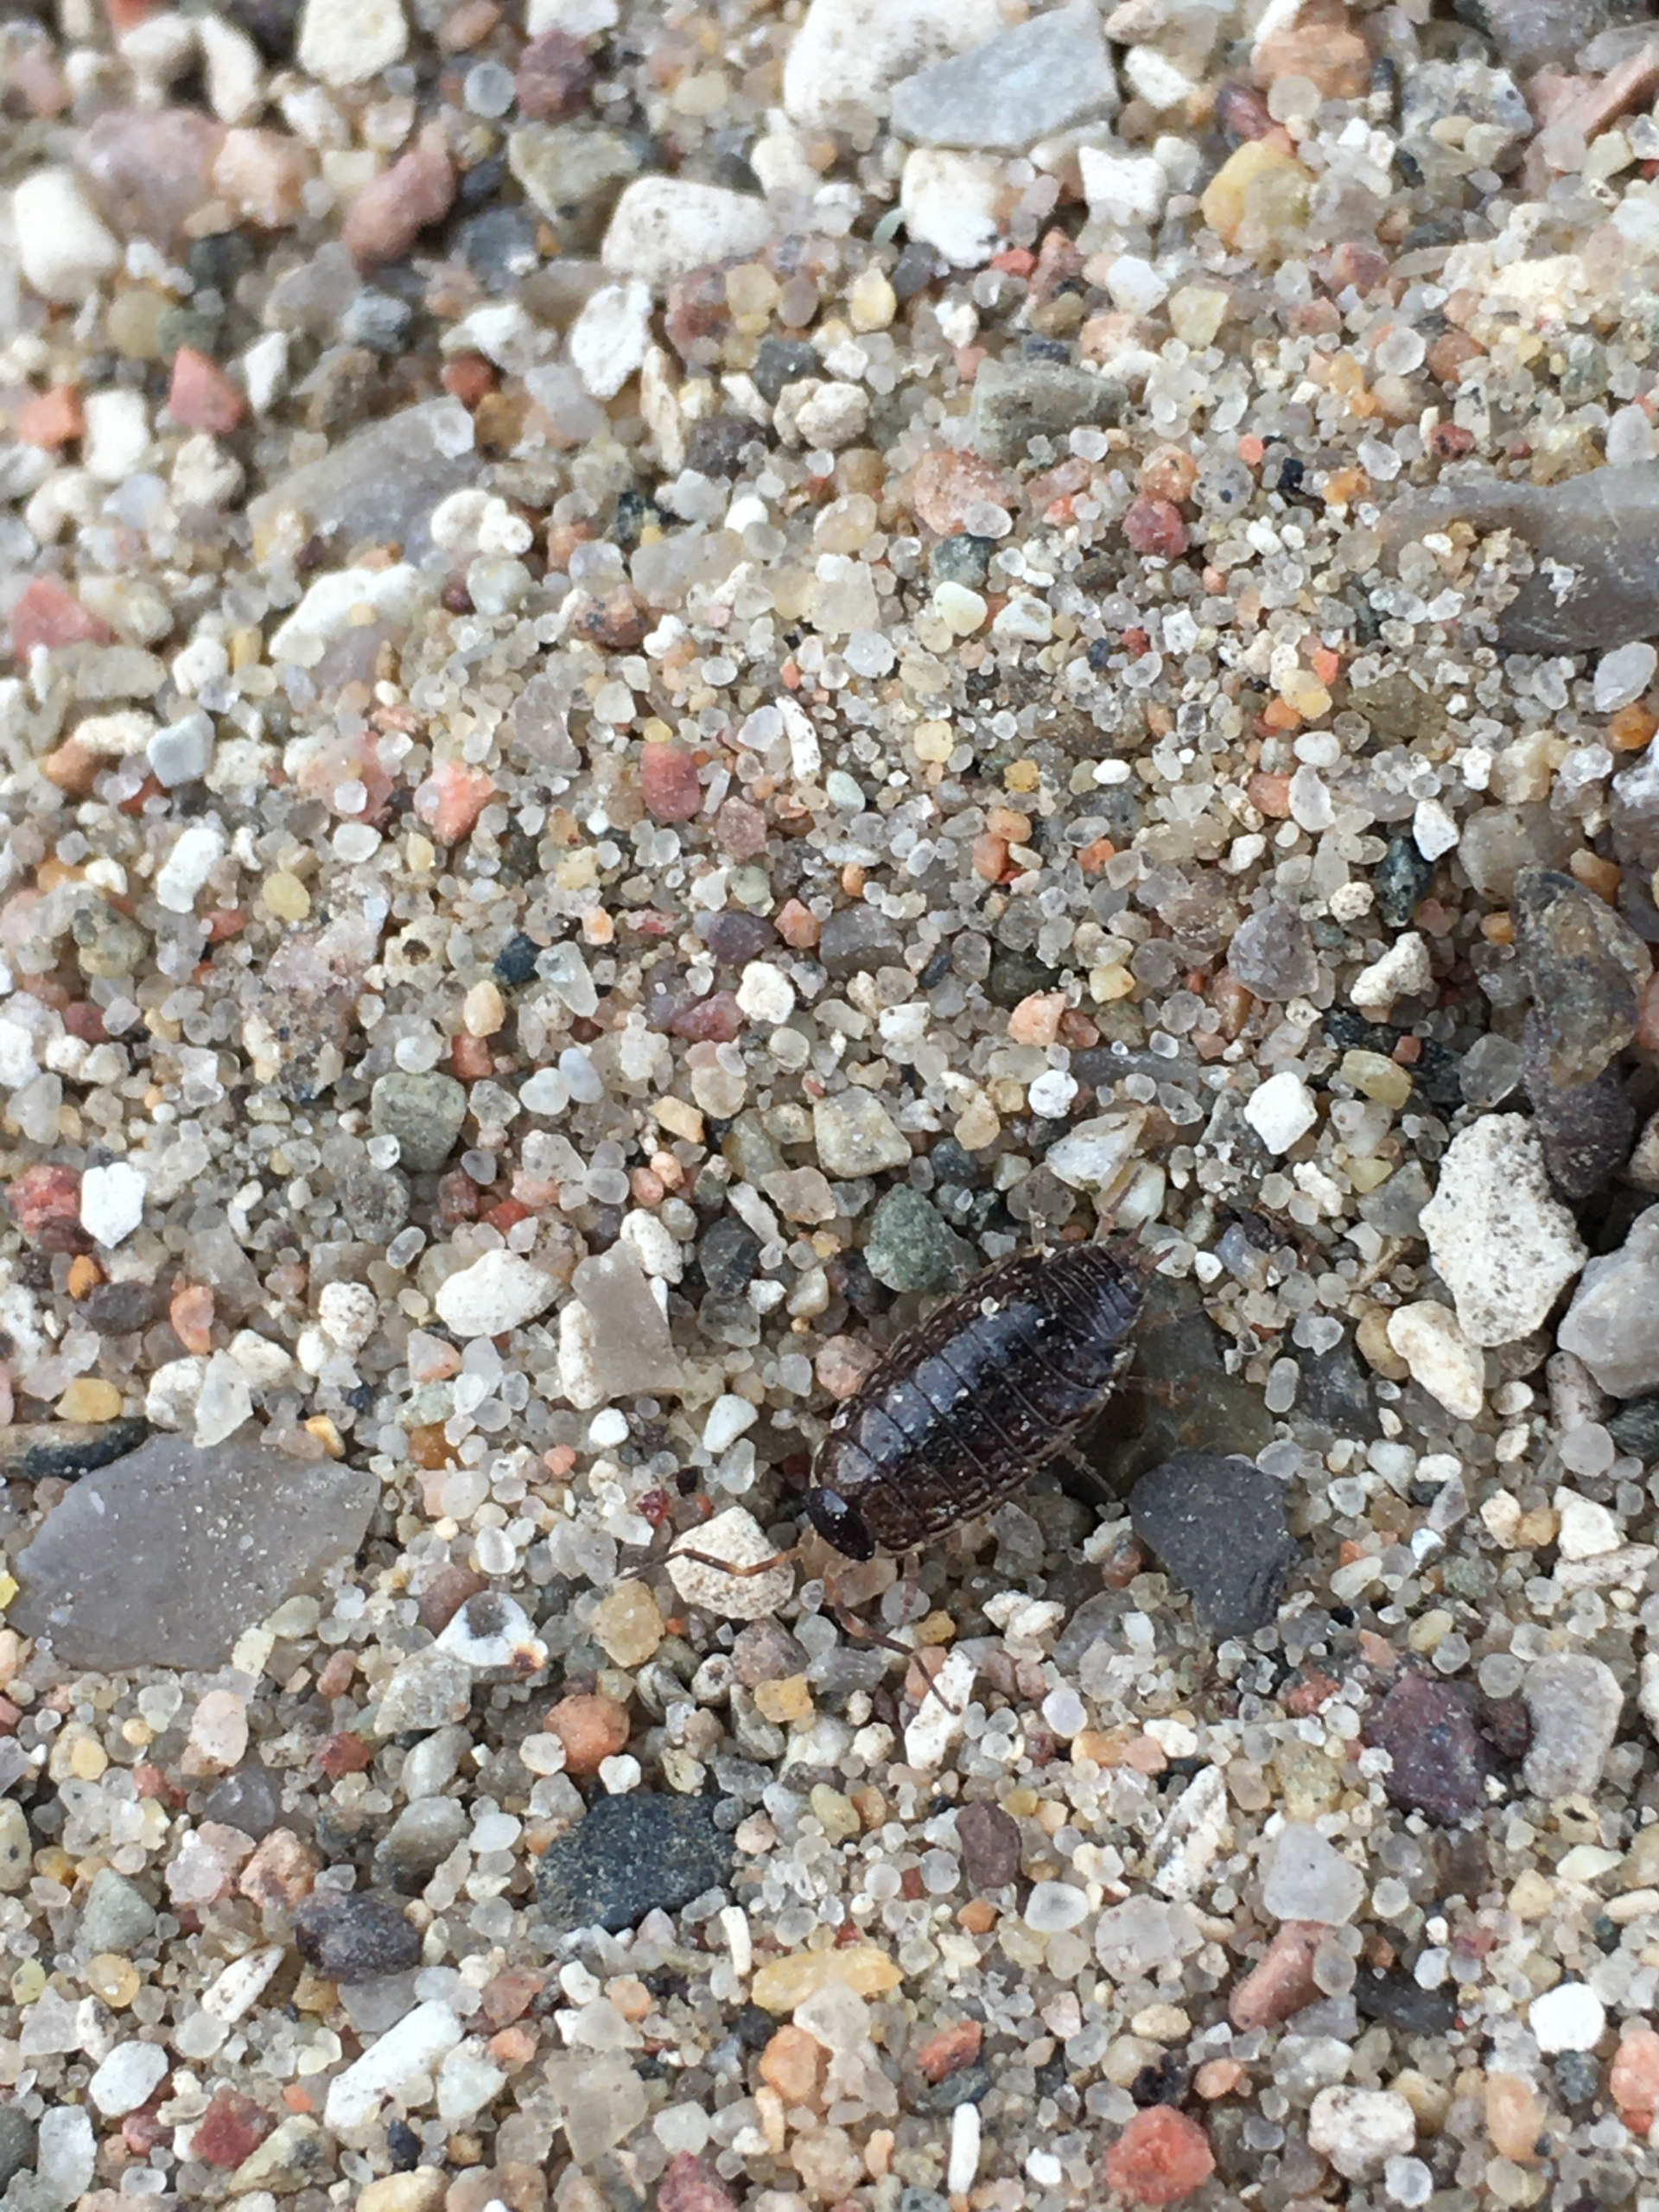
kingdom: Animalia
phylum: Arthropoda
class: Malacostraca
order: Isopoda
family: Philosciidae
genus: Philoscia
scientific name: Philoscia muscorum
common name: Langbenet bænkebider
